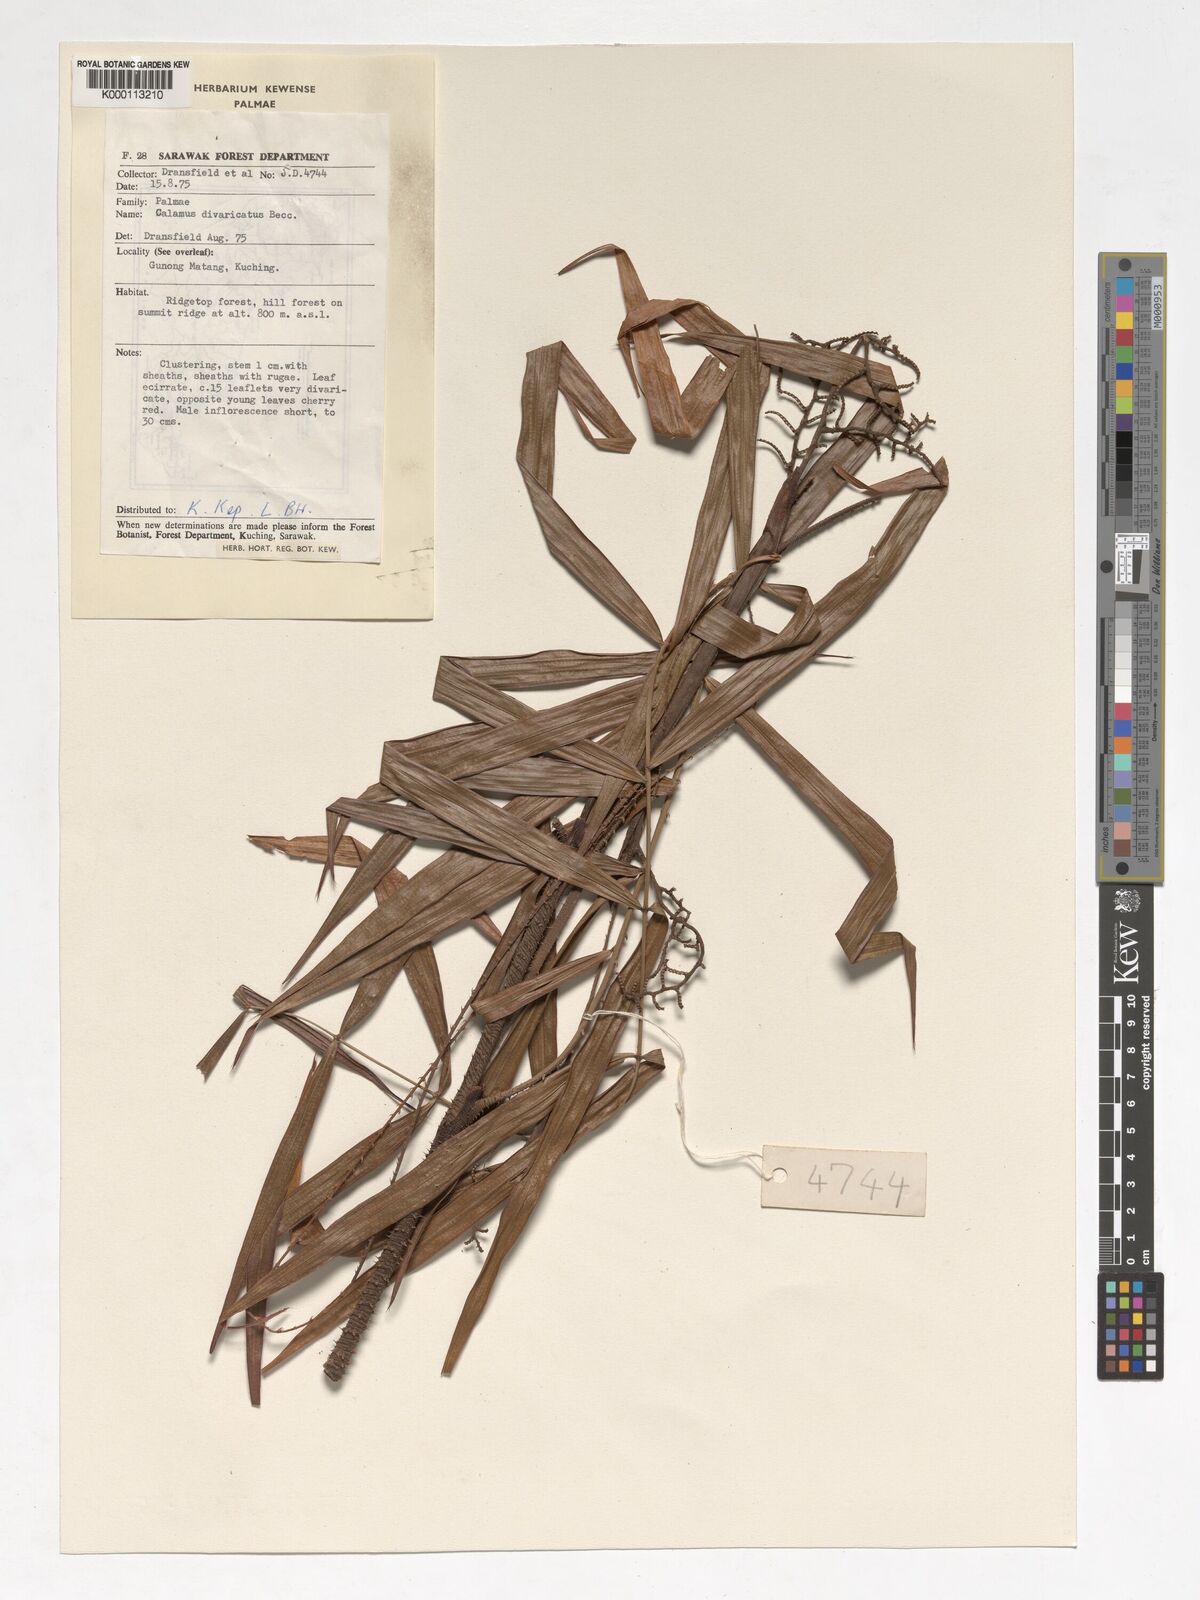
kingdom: Plantae
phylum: Tracheophyta
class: Liliopsida
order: Arecales
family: Arecaceae
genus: Calamus
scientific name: Calamus divaricatus
